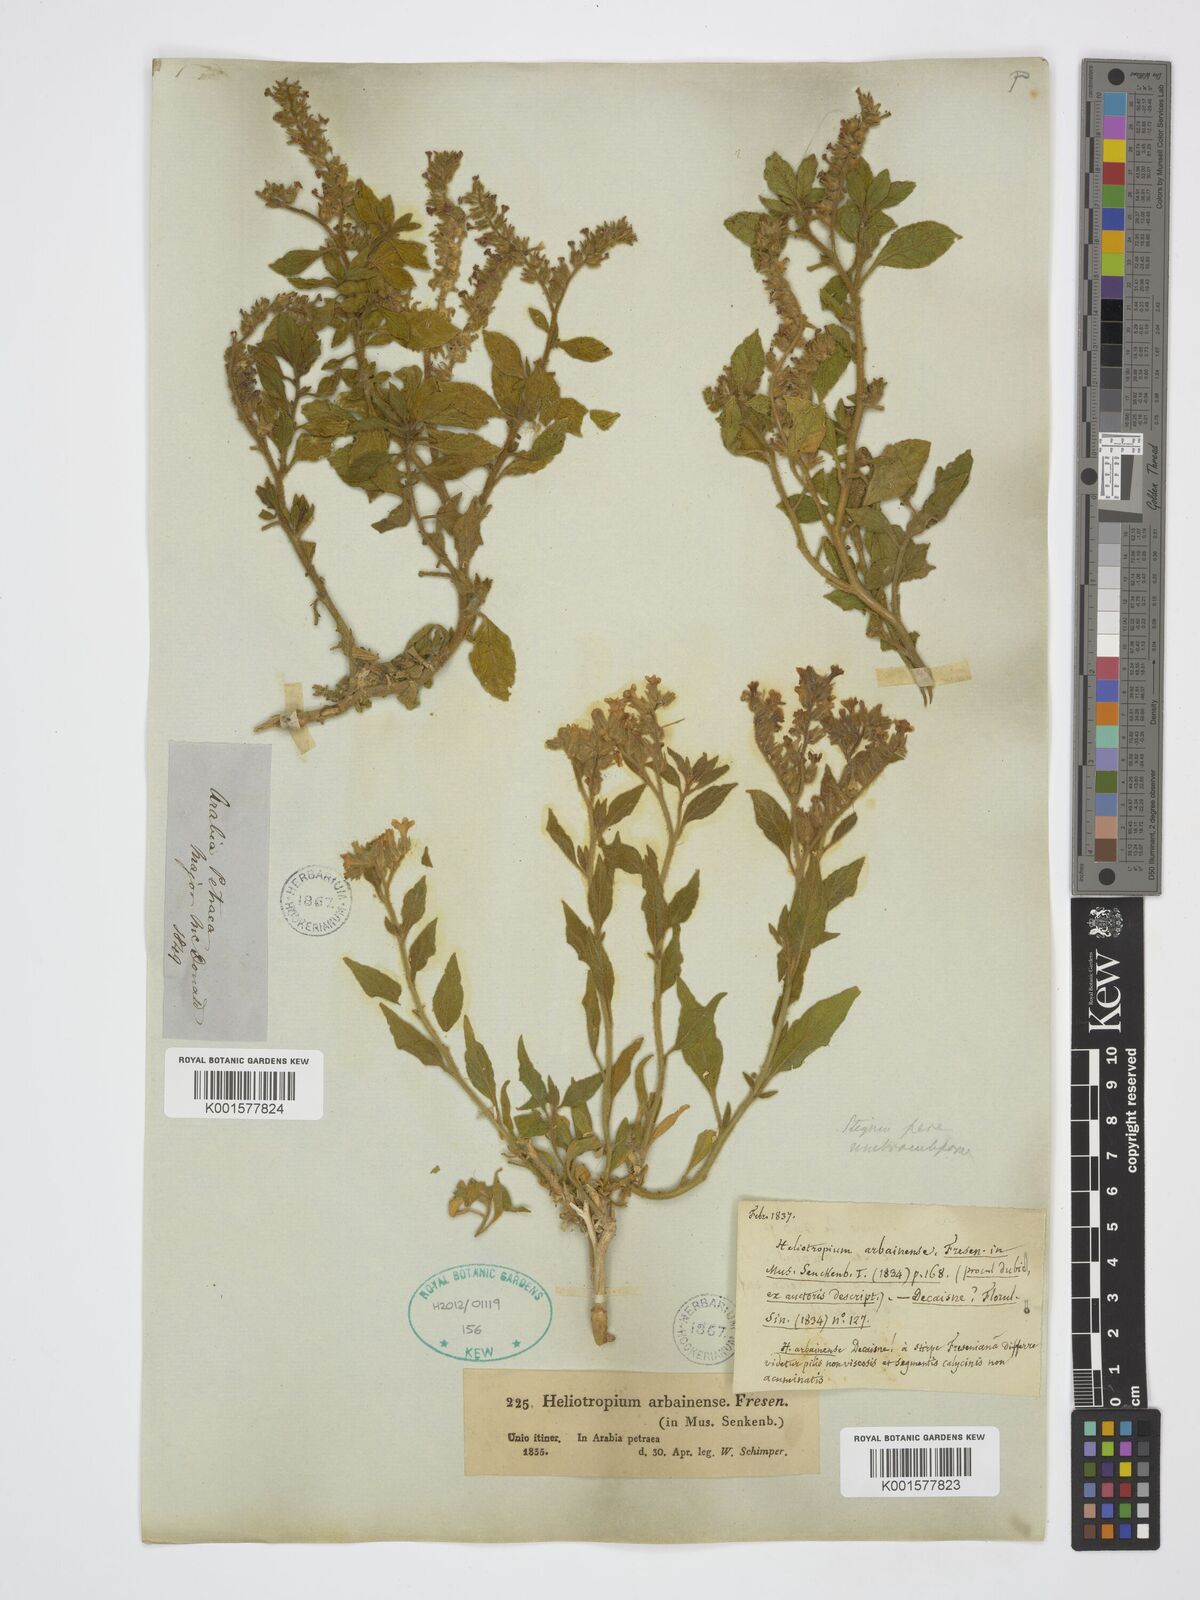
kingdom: Plantae
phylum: Tracheophyta
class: Magnoliopsida
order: Boraginales
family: Heliotropiaceae
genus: Heliotropium
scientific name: Heliotropium arbainense
